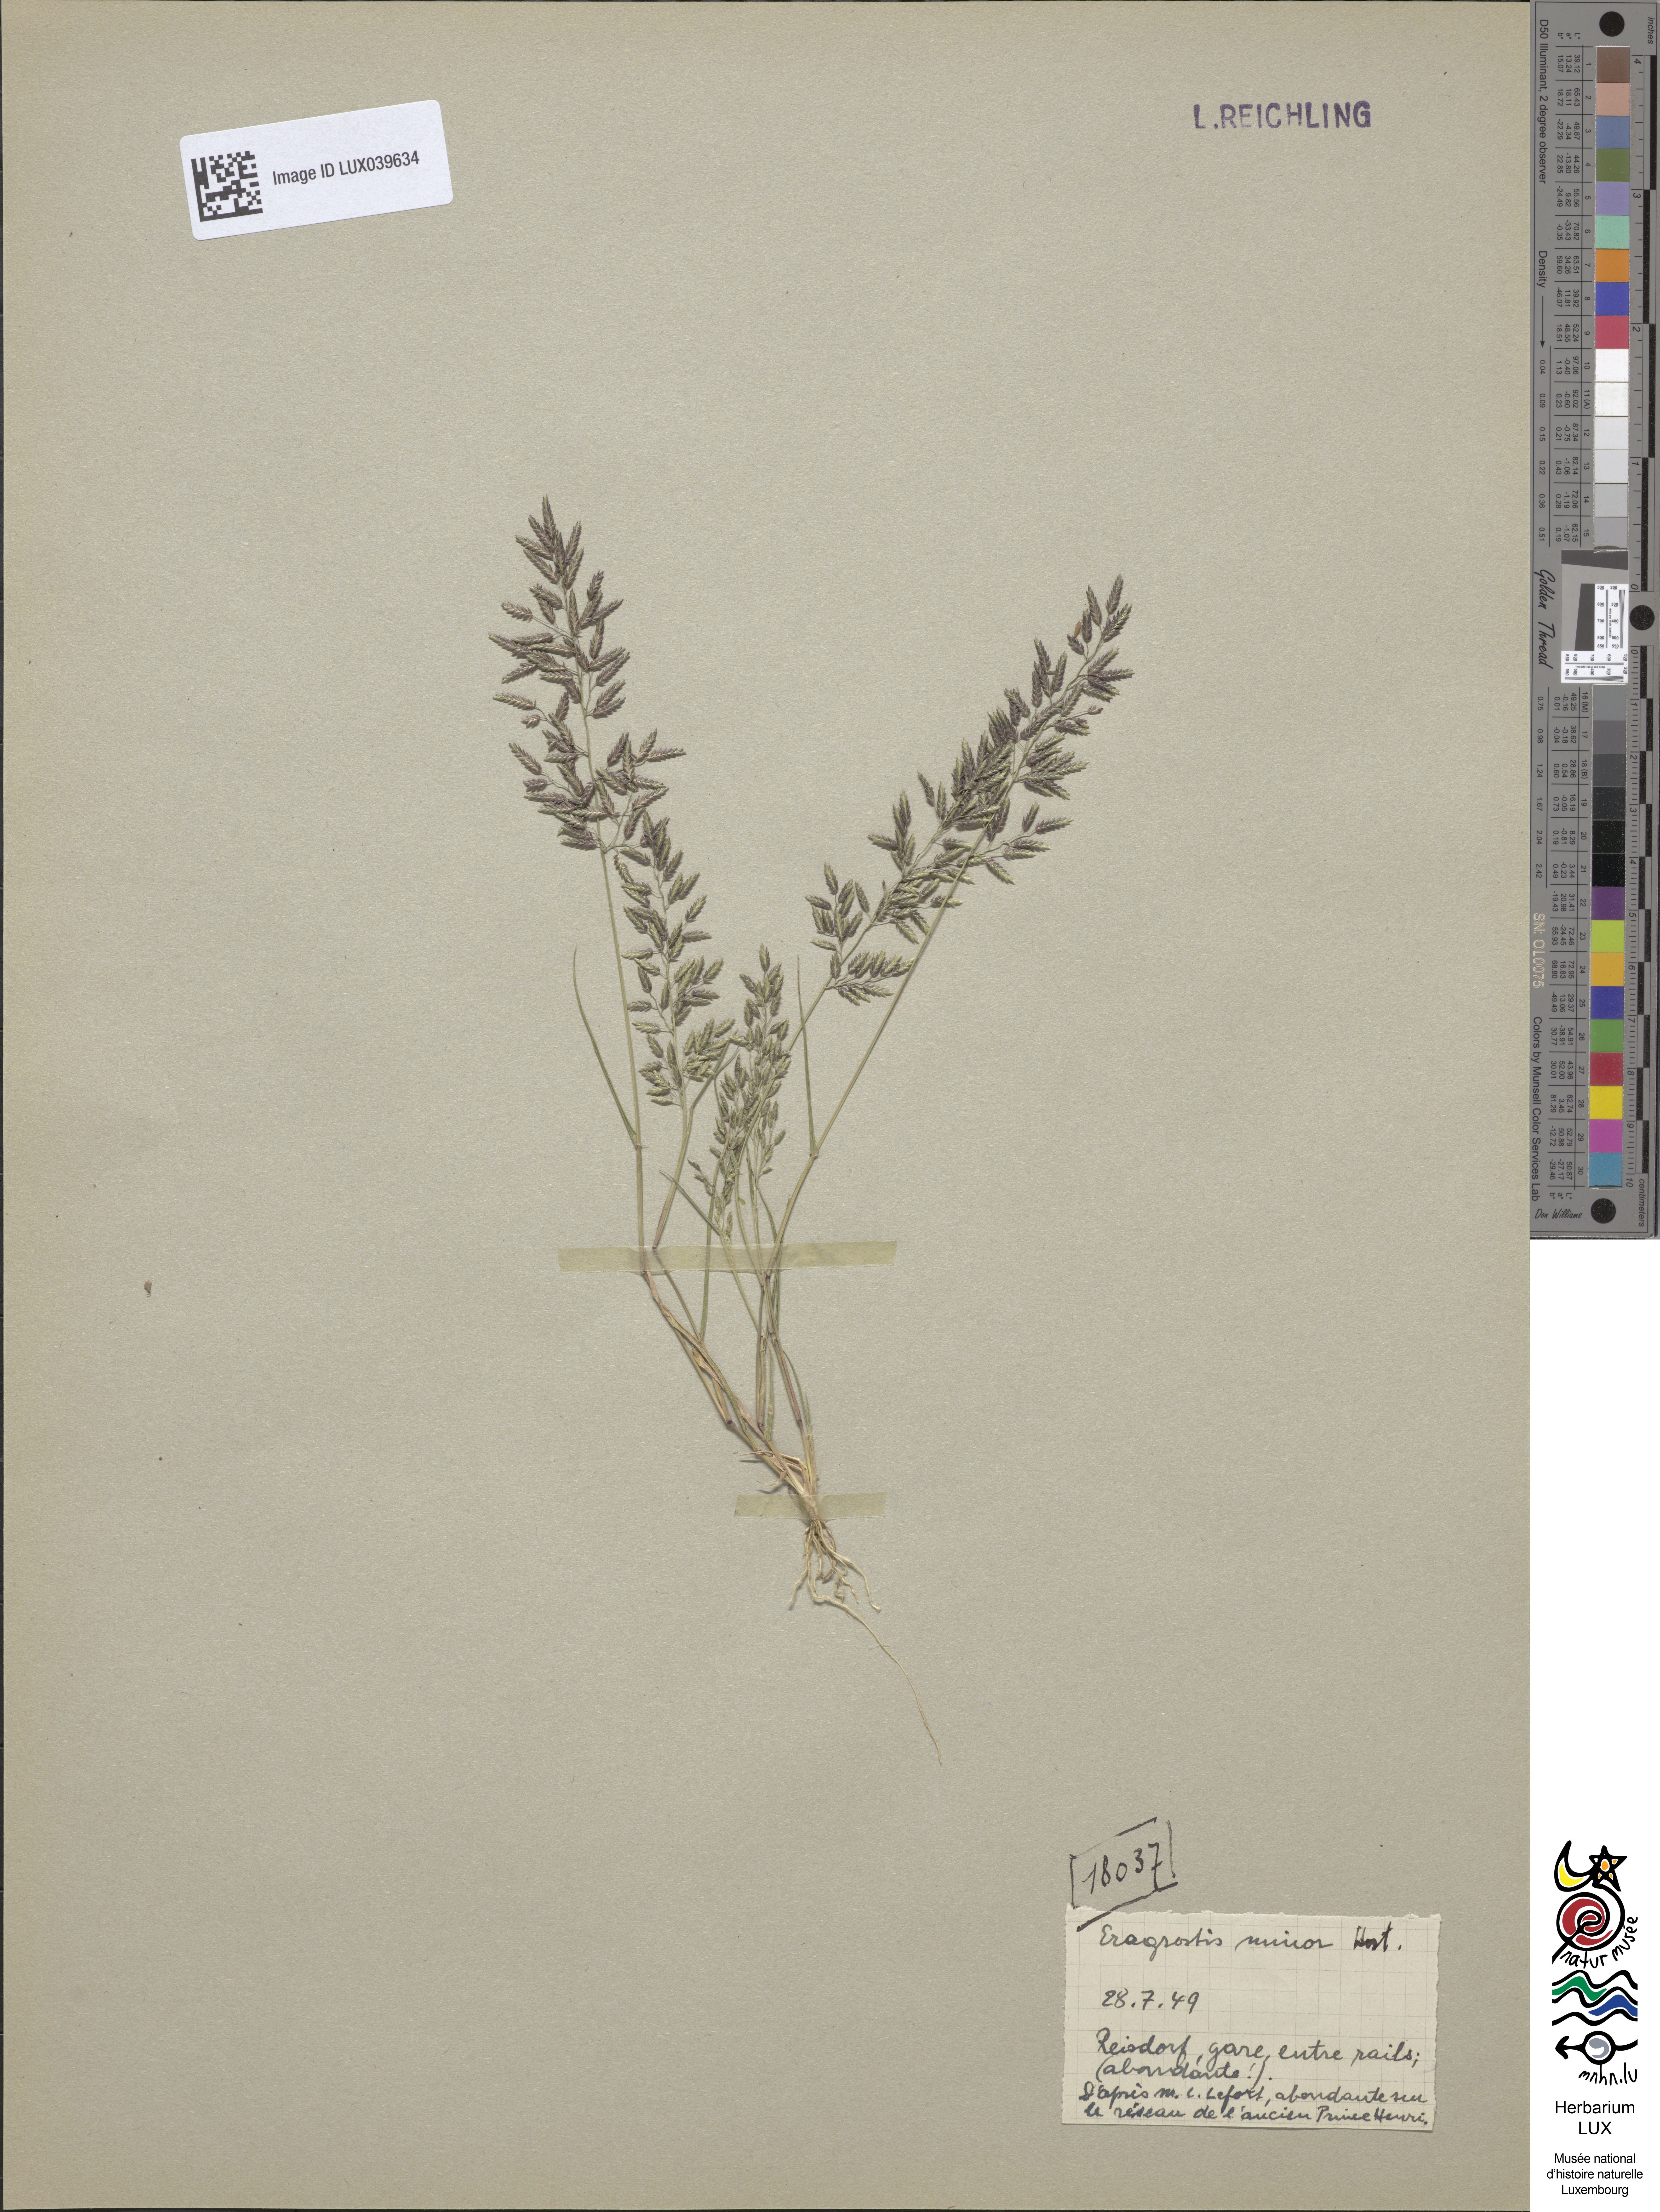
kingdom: Plantae
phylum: Tracheophyta
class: Liliopsida
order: Poales
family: Poaceae
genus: Eragrostis
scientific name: Eragrostis minor
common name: Small love-grass
